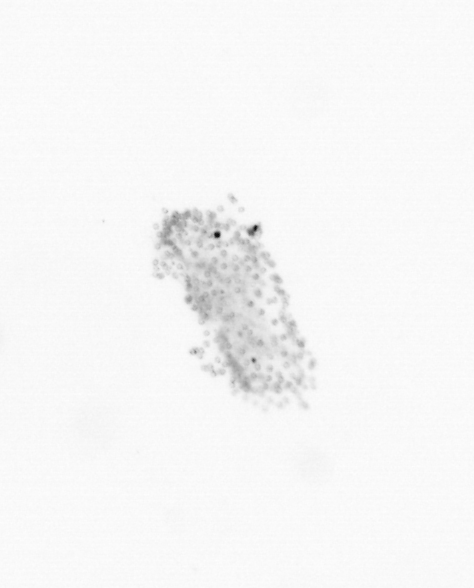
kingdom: Chromista
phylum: Ochrophyta
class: Bacillariophyceae
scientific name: Bacillariophyceae
